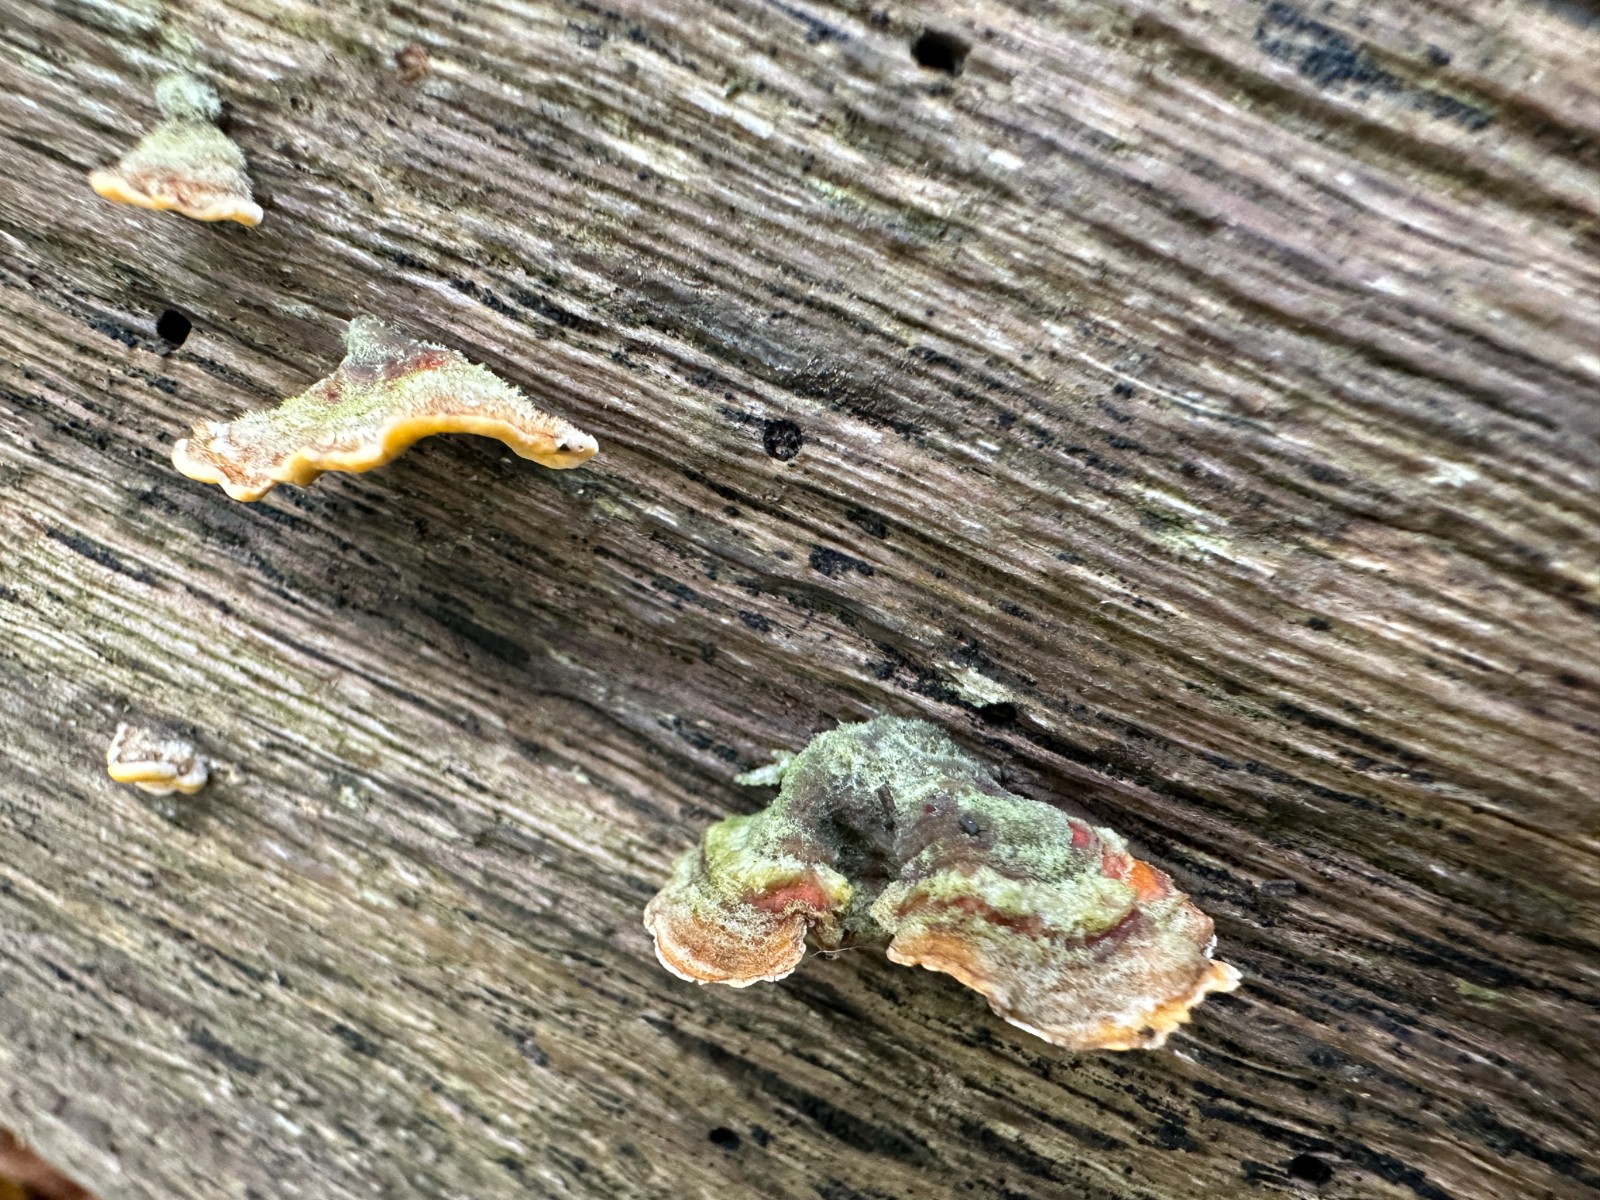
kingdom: Fungi
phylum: Basidiomycota
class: Agaricomycetes
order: Russulales
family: Stereaceae
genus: Stereum
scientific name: Stereum hirsutum
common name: håret lædersvamp
